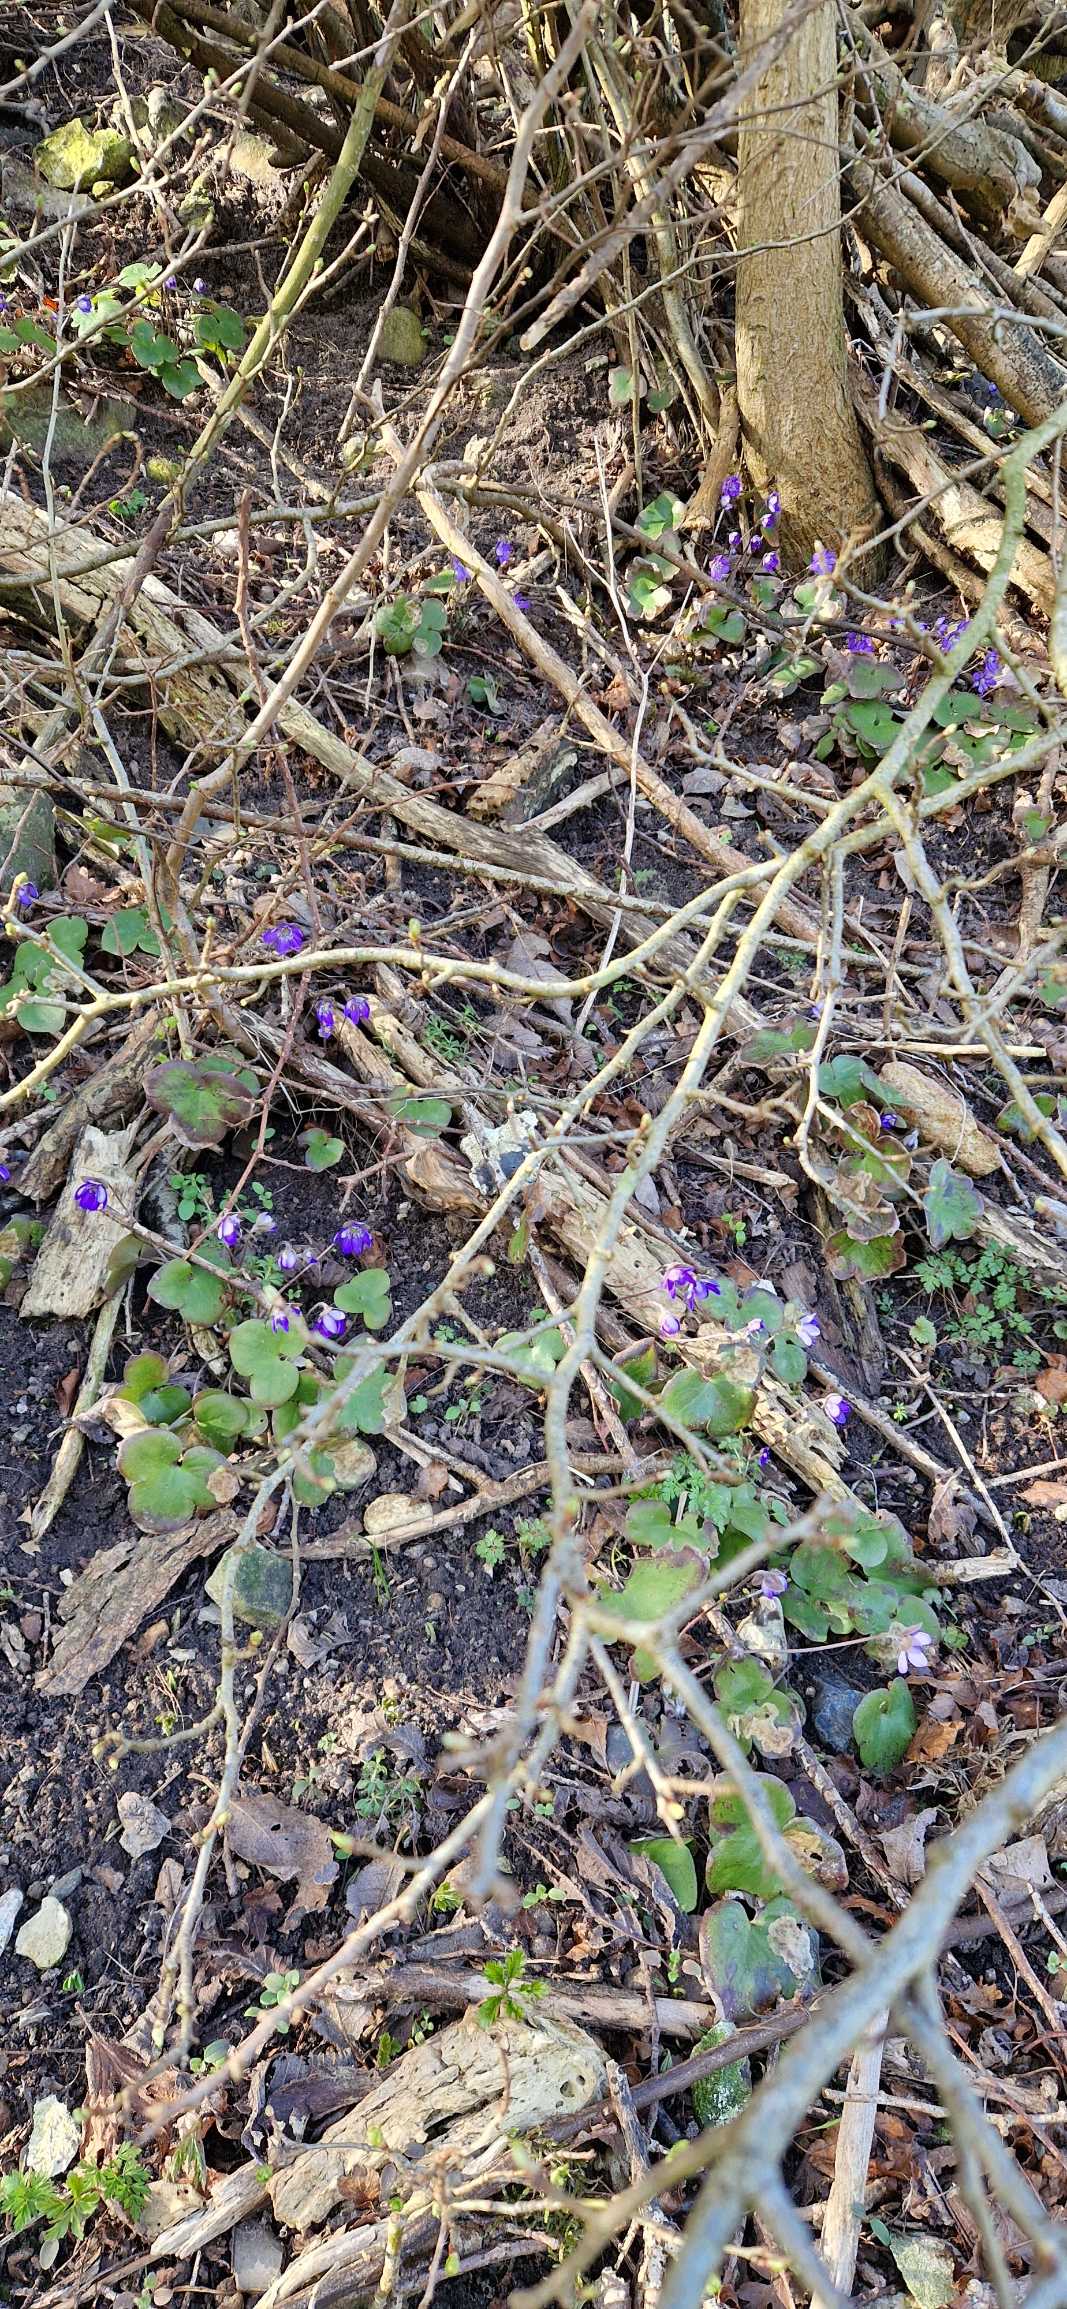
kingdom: Plantae
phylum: Tracheophyta
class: Magnoliopsida
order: Ranunculales
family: Ranunculaceae
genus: Hepatica
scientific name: Hepatica nobilis
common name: Blå anemone
